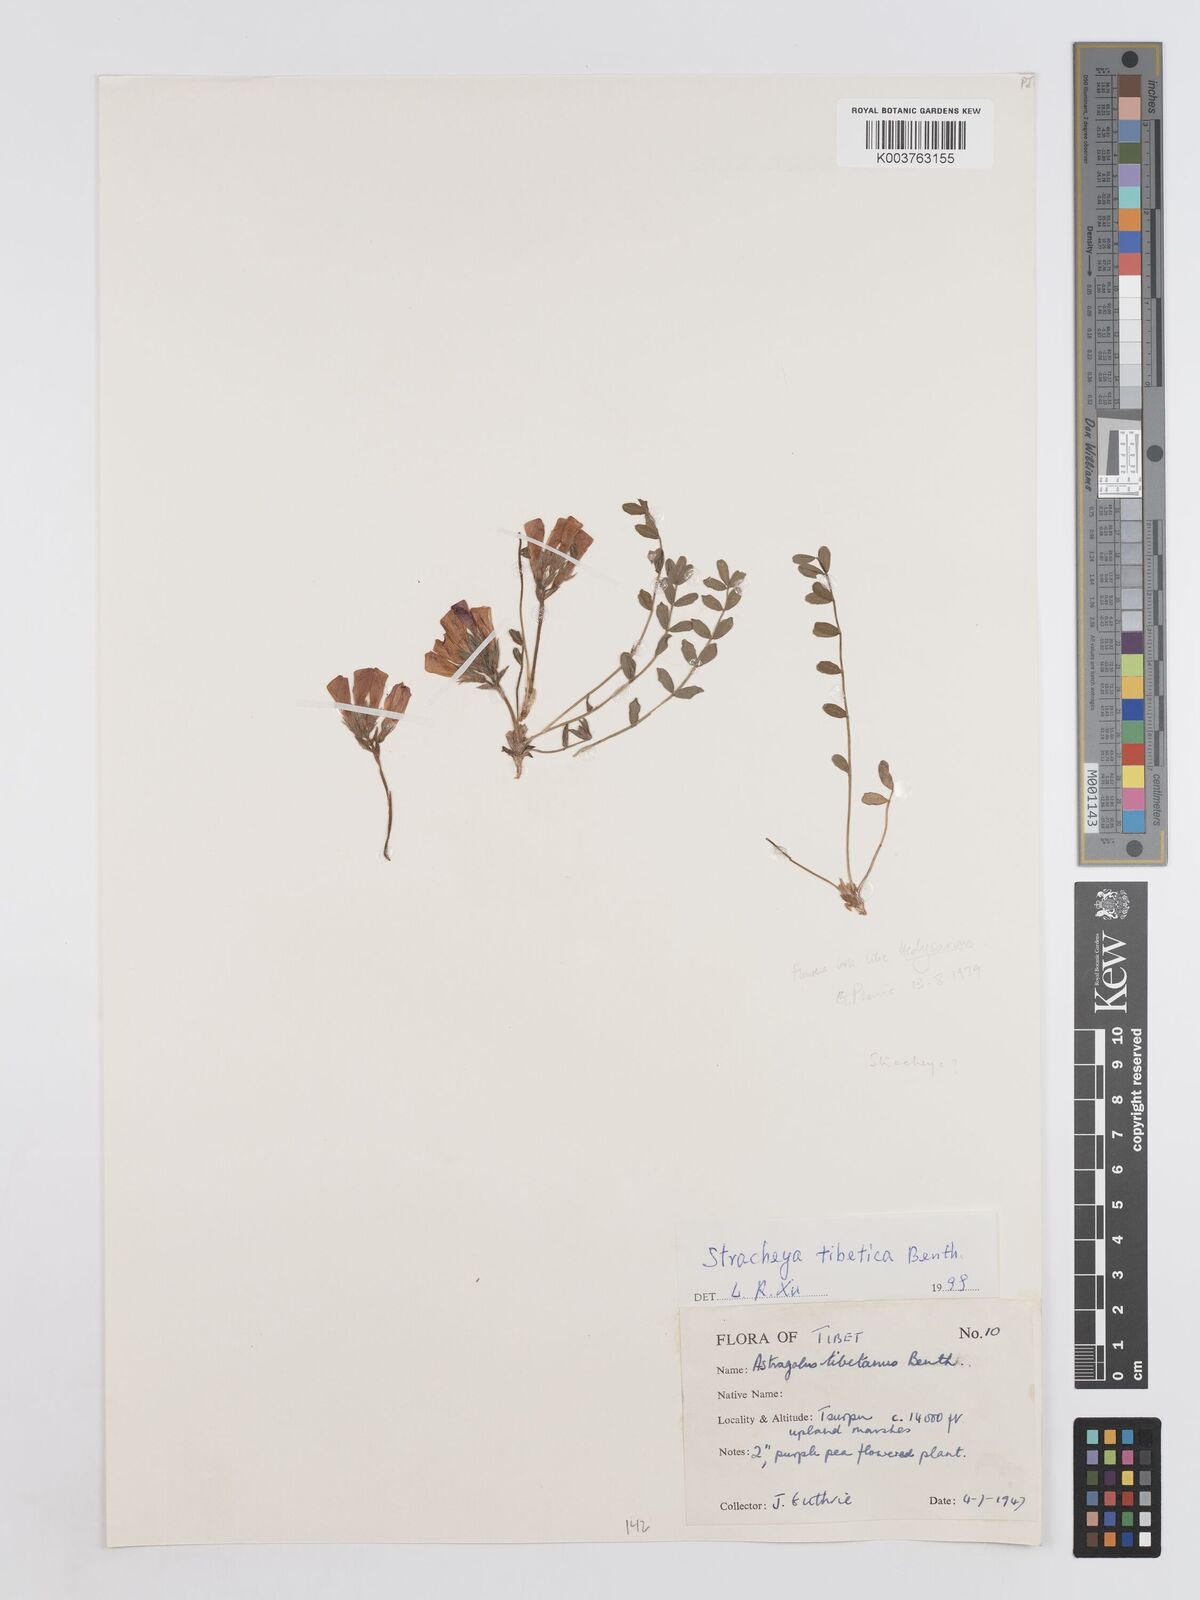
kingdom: Plantae
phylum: Tracheophyta
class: Magnoliopsida
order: Fabales
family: Fabaceae
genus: Hedysarum
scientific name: Hedysarum tibeticum
